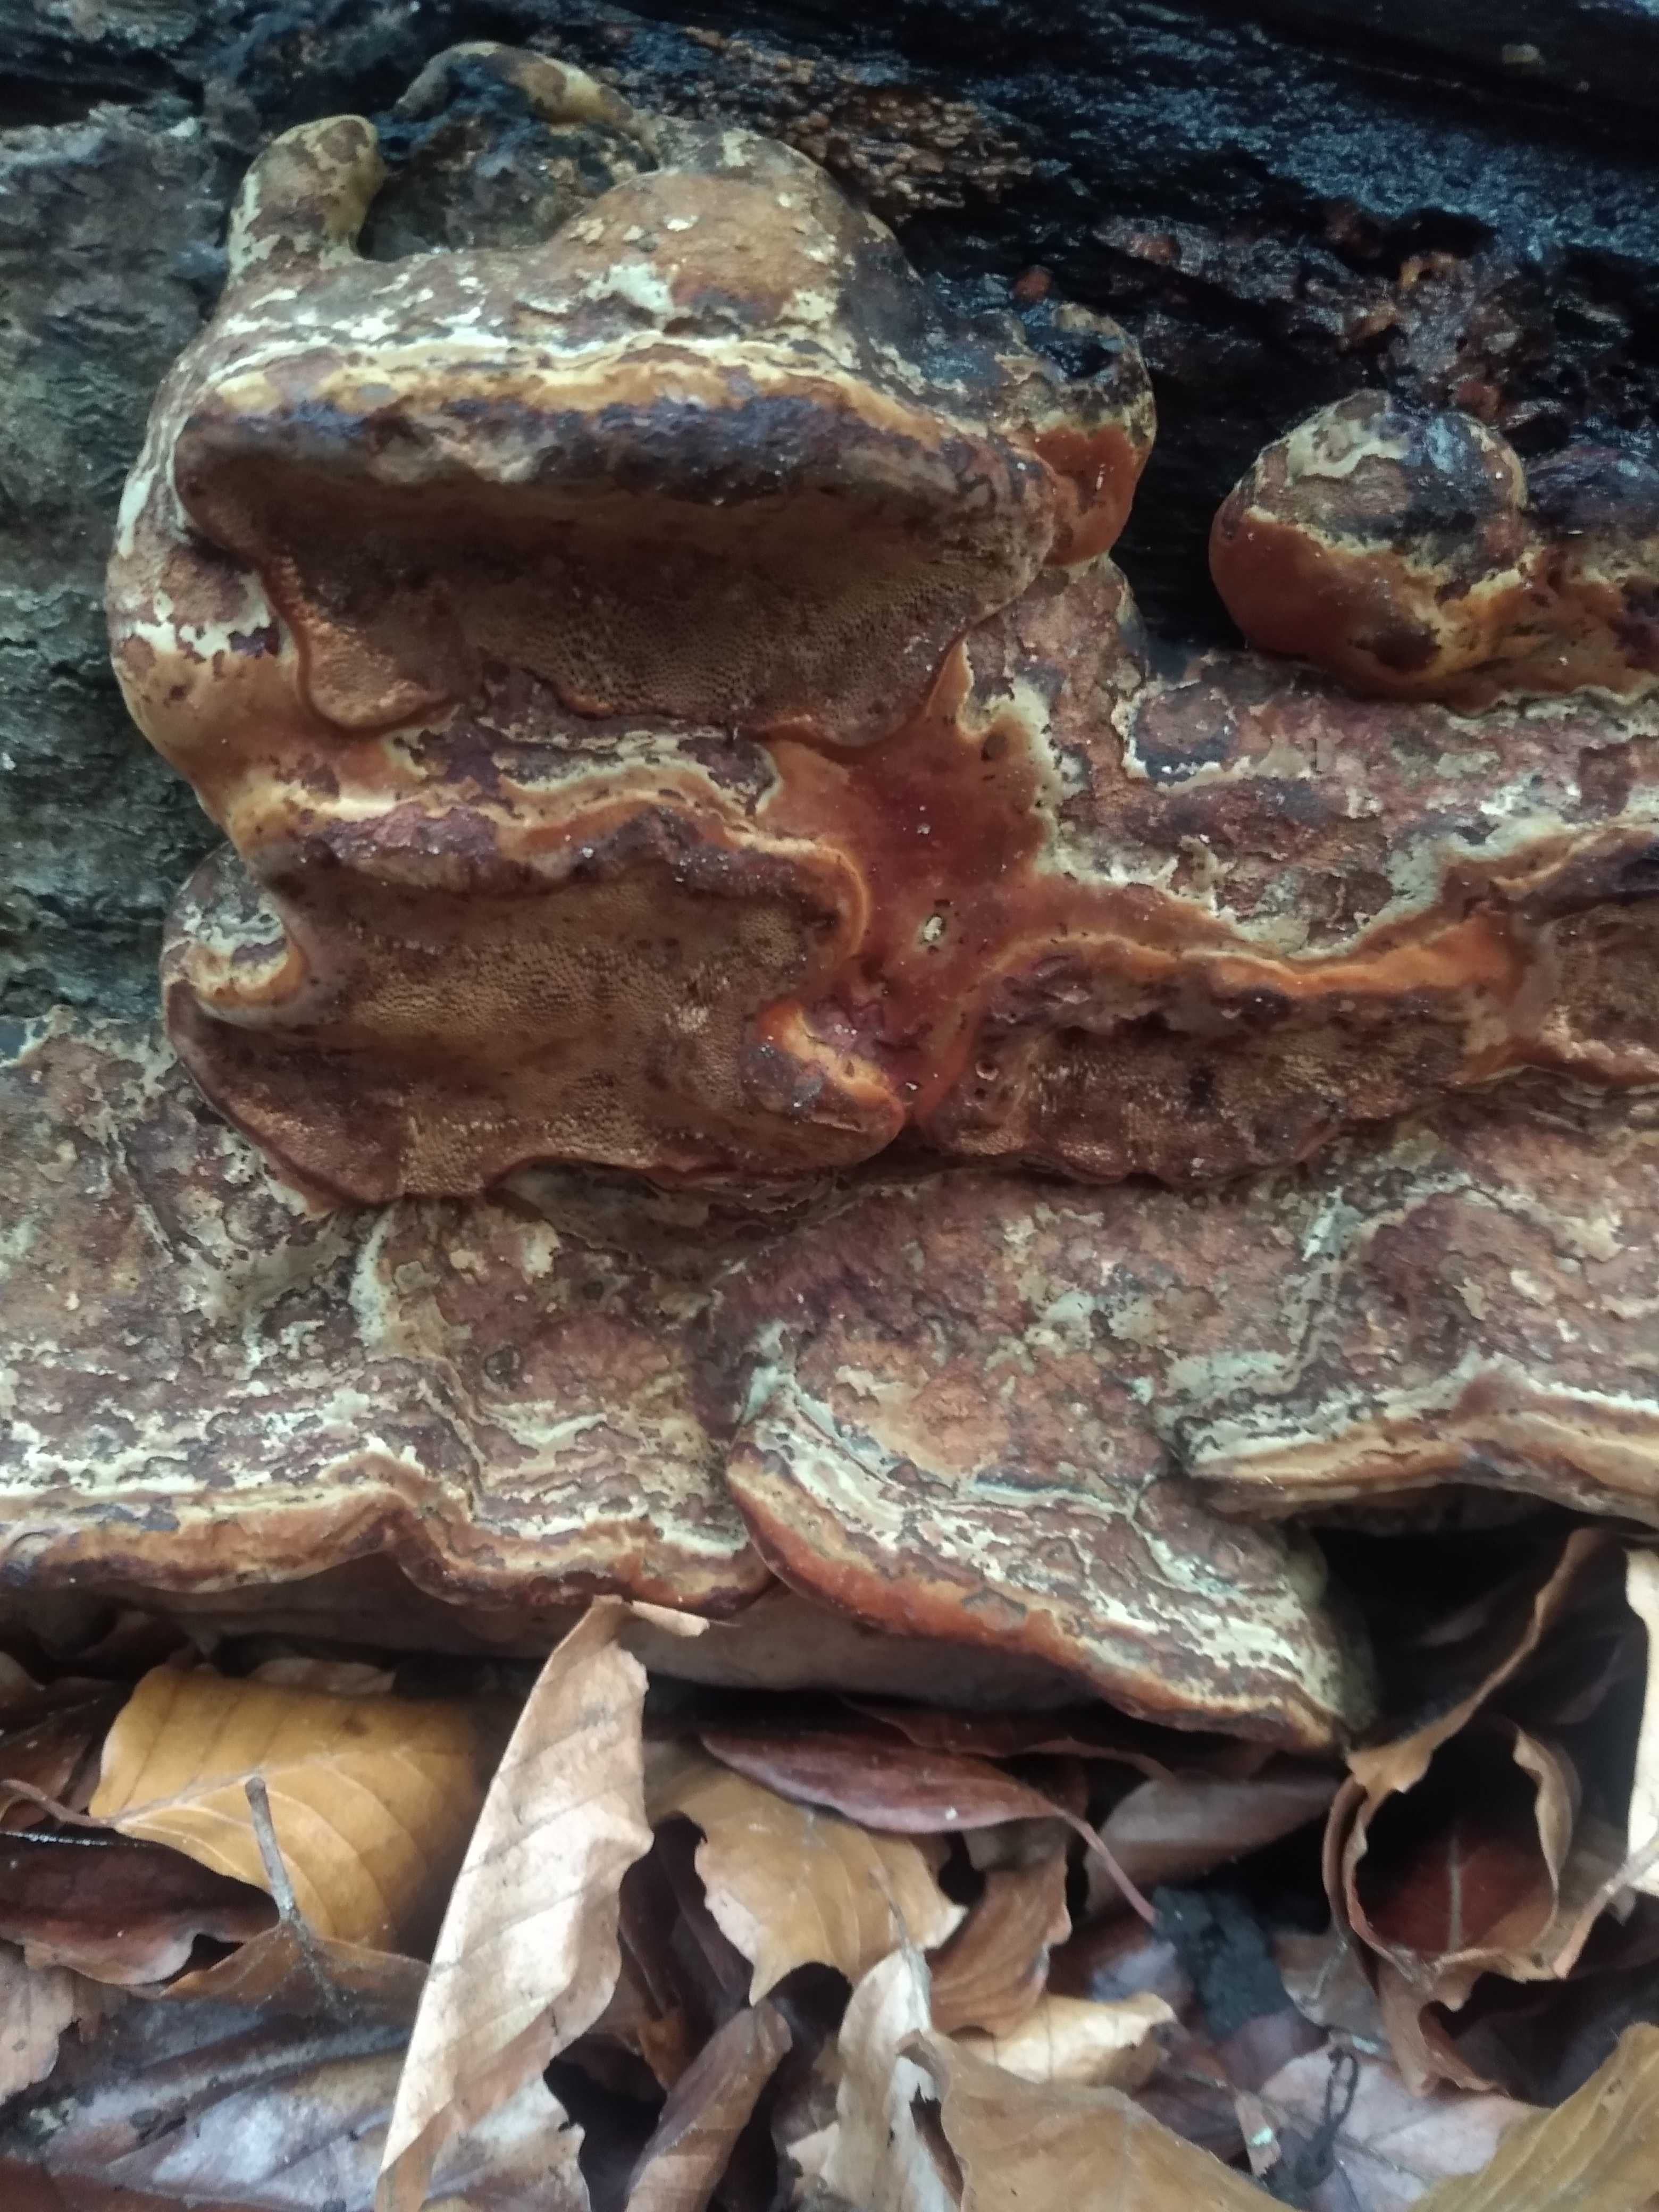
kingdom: Fungi
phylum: Basidiomycota
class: Agaricomycetes
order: Polyporales
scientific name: Polyporales
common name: poresvampordenen
